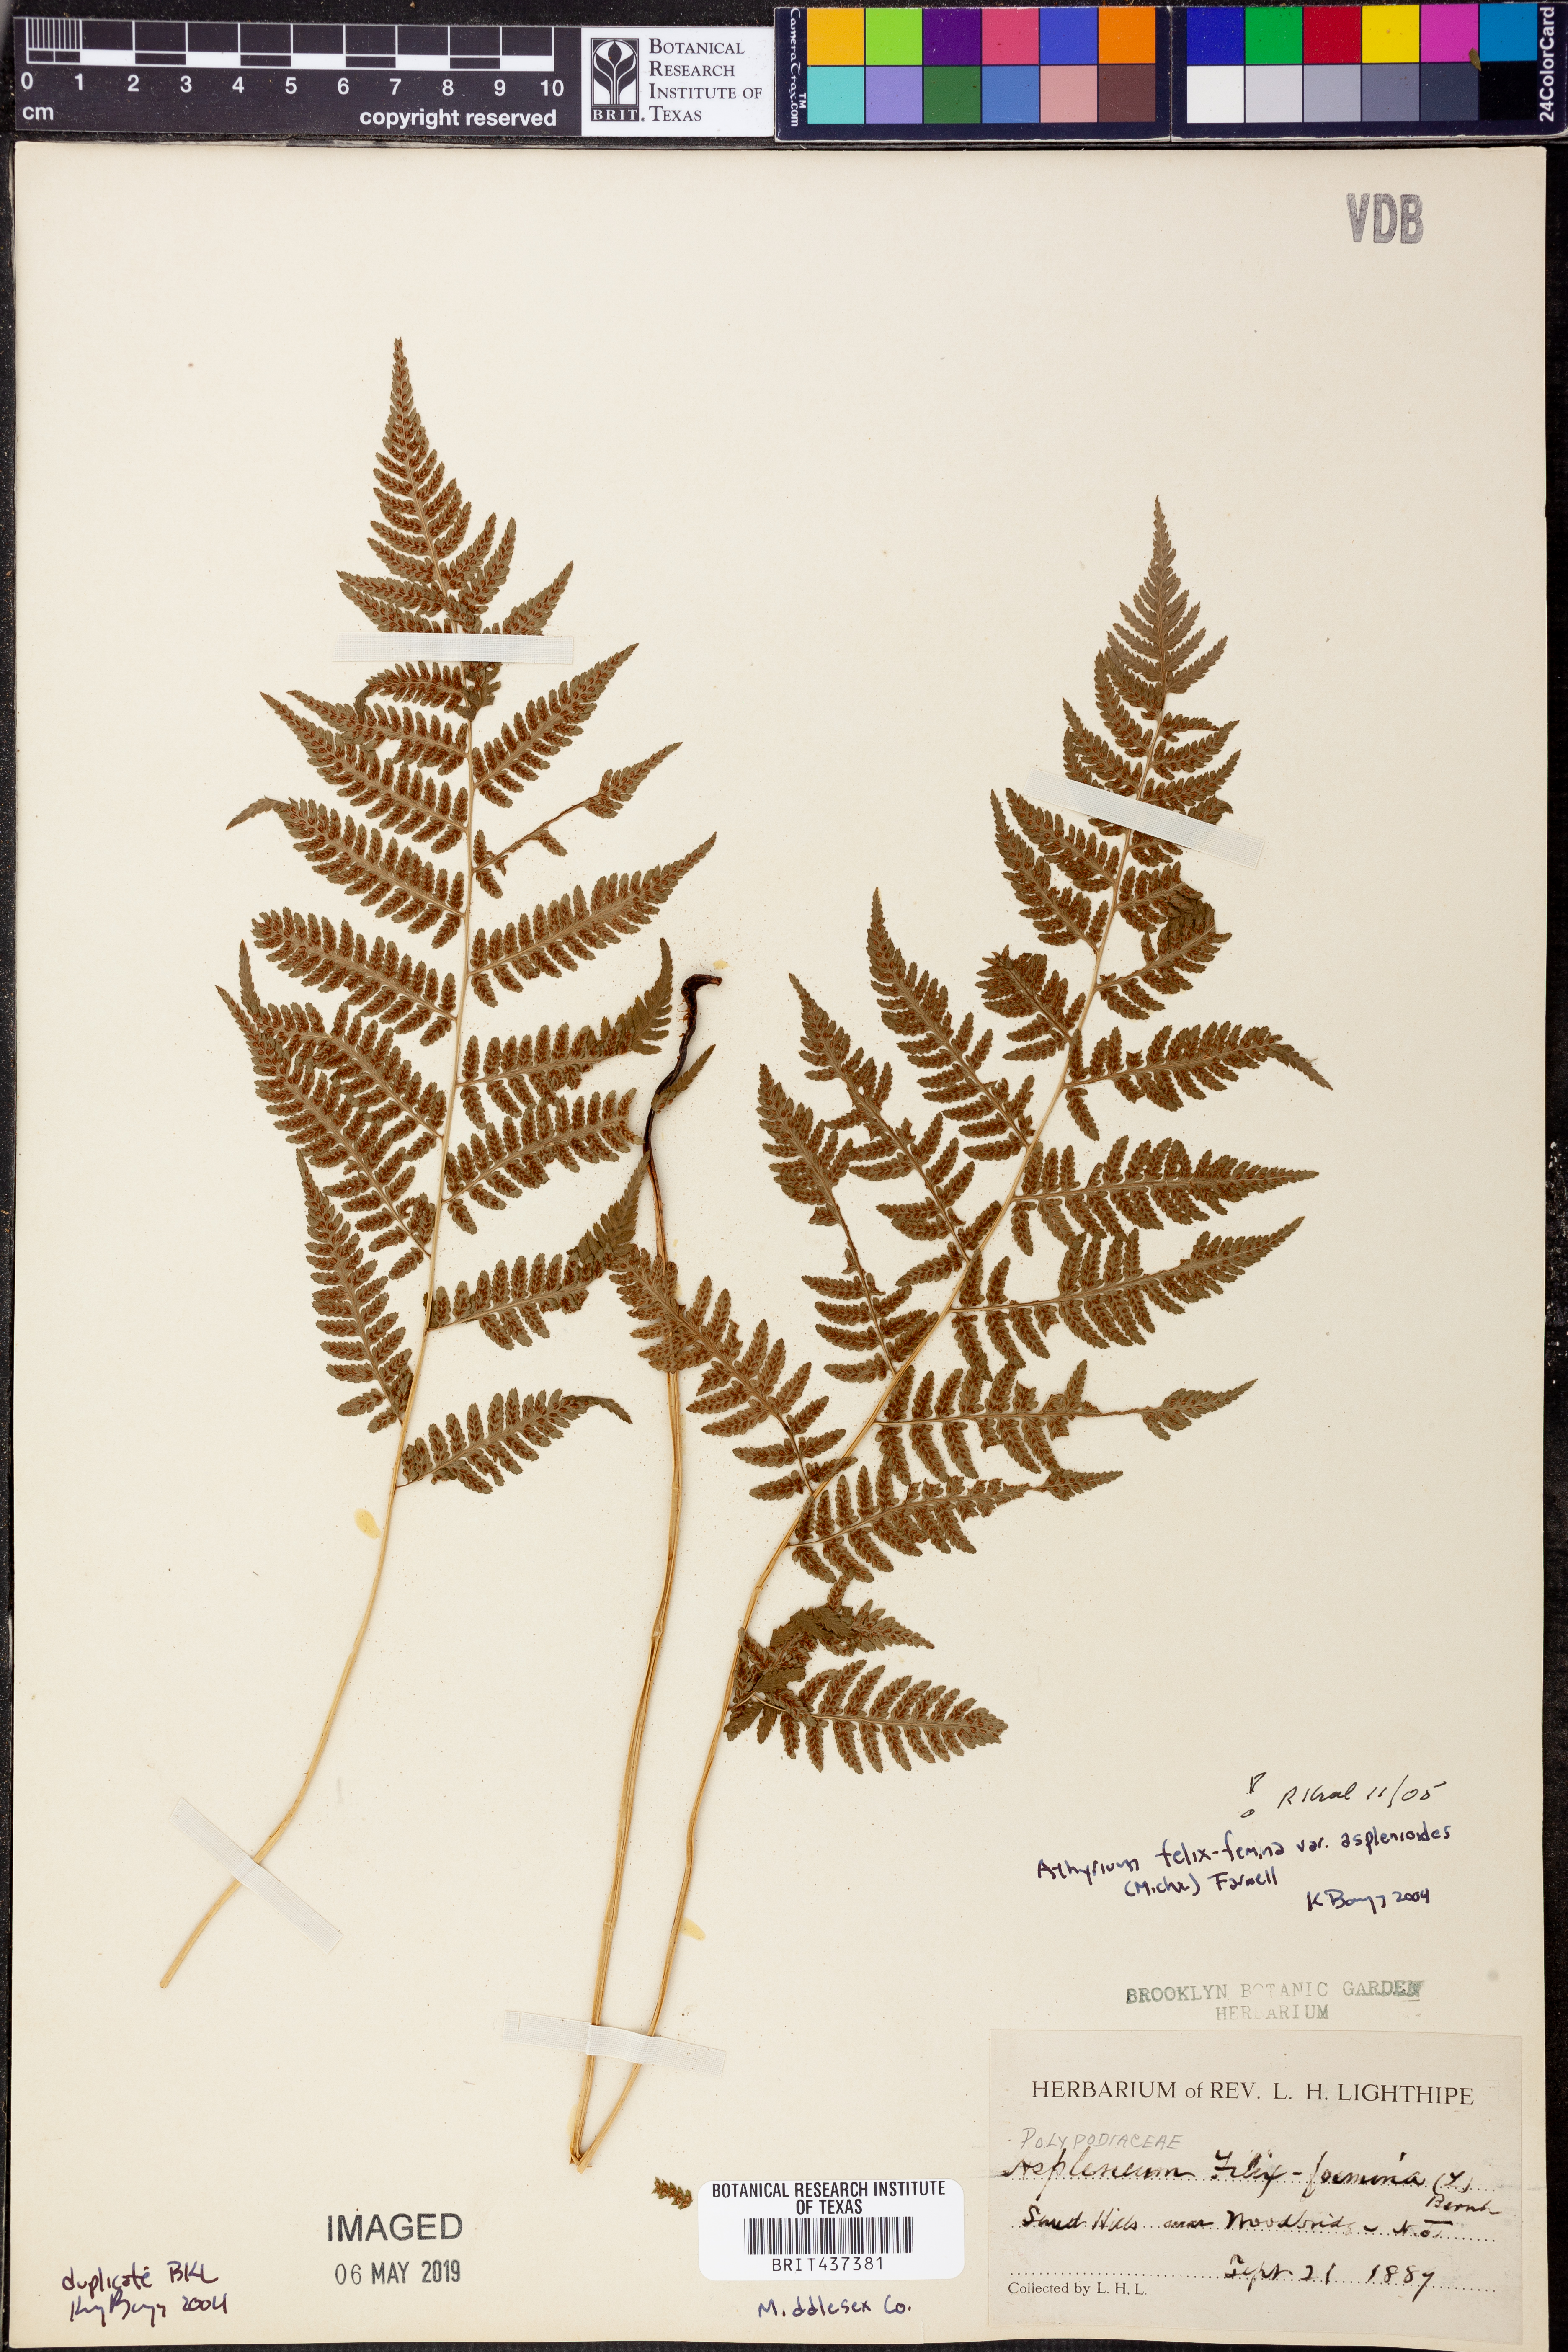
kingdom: Plantae
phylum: Tracheophyta
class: Polypodiopsida
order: Polypodiales
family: Athyriaceae
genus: Athyrium
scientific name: Athyrium asplenioides
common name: Southern lady fern
